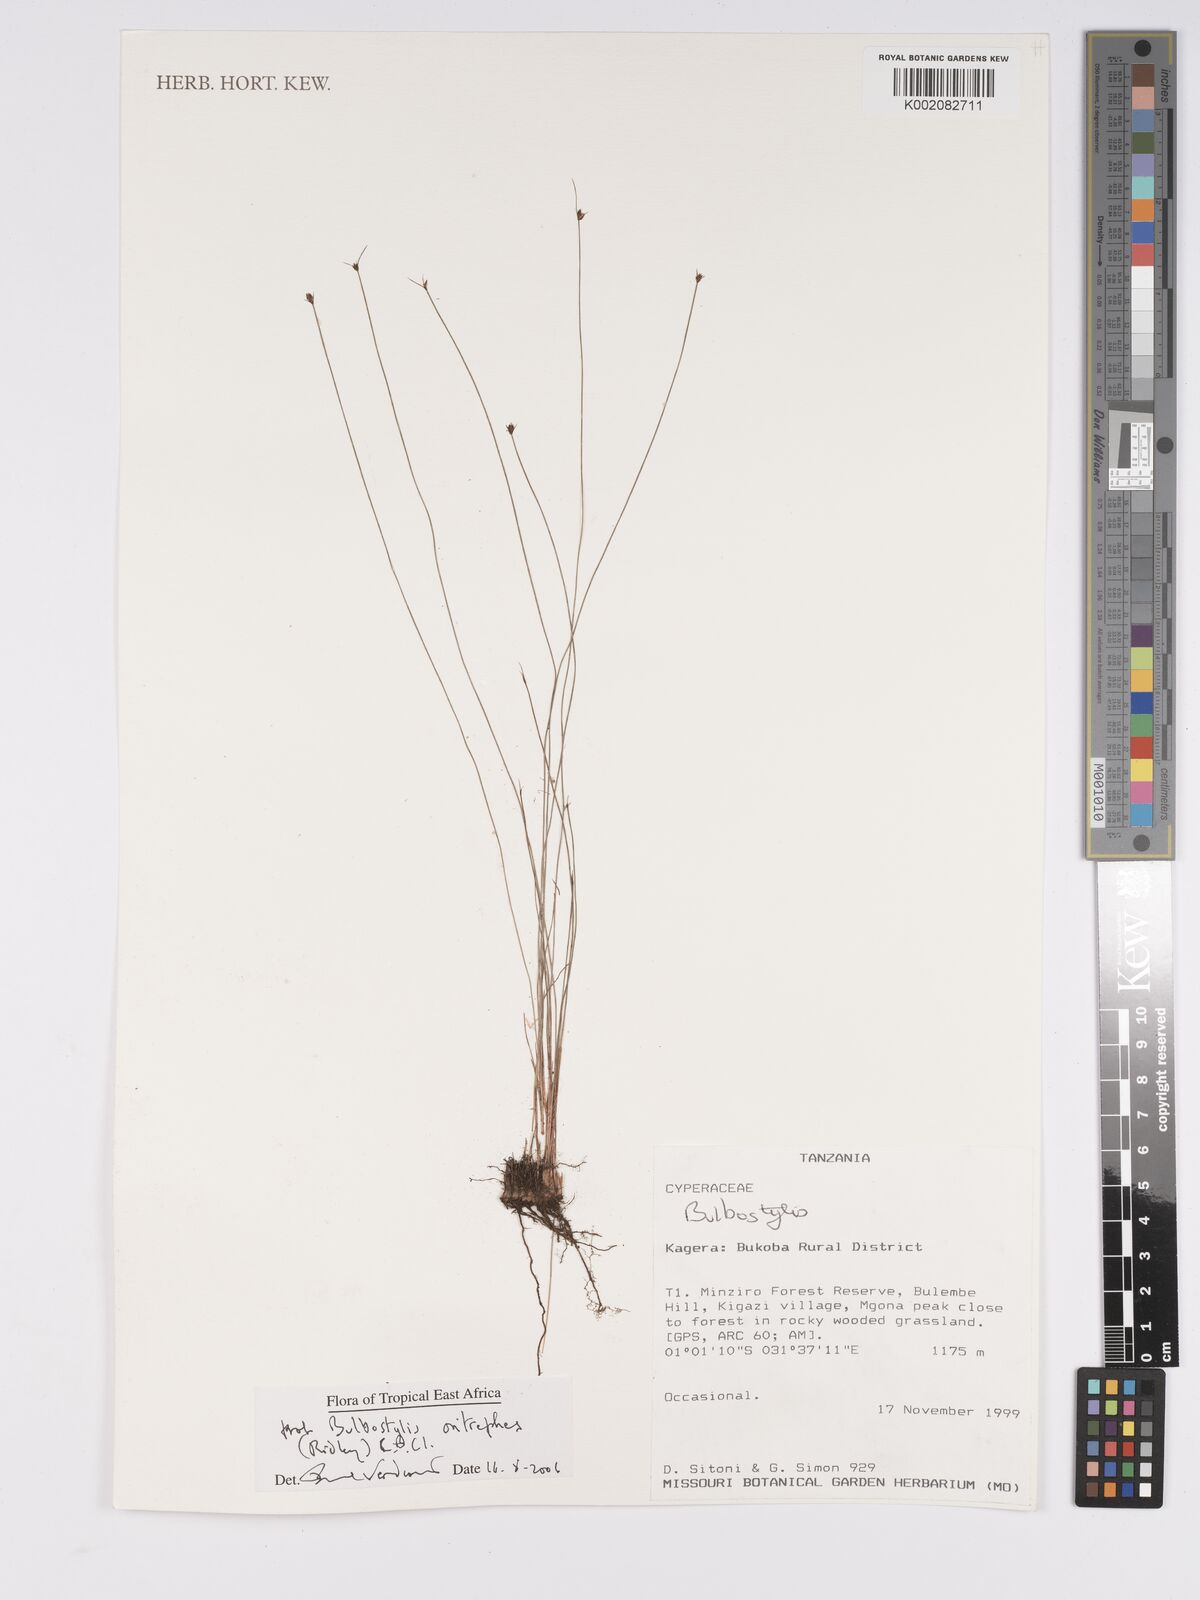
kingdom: Plantae
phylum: Tracheophyta
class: Liliopsida
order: Poales
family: Cyperaceae
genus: Bulbostylis
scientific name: Bulbostylis oritrephes
